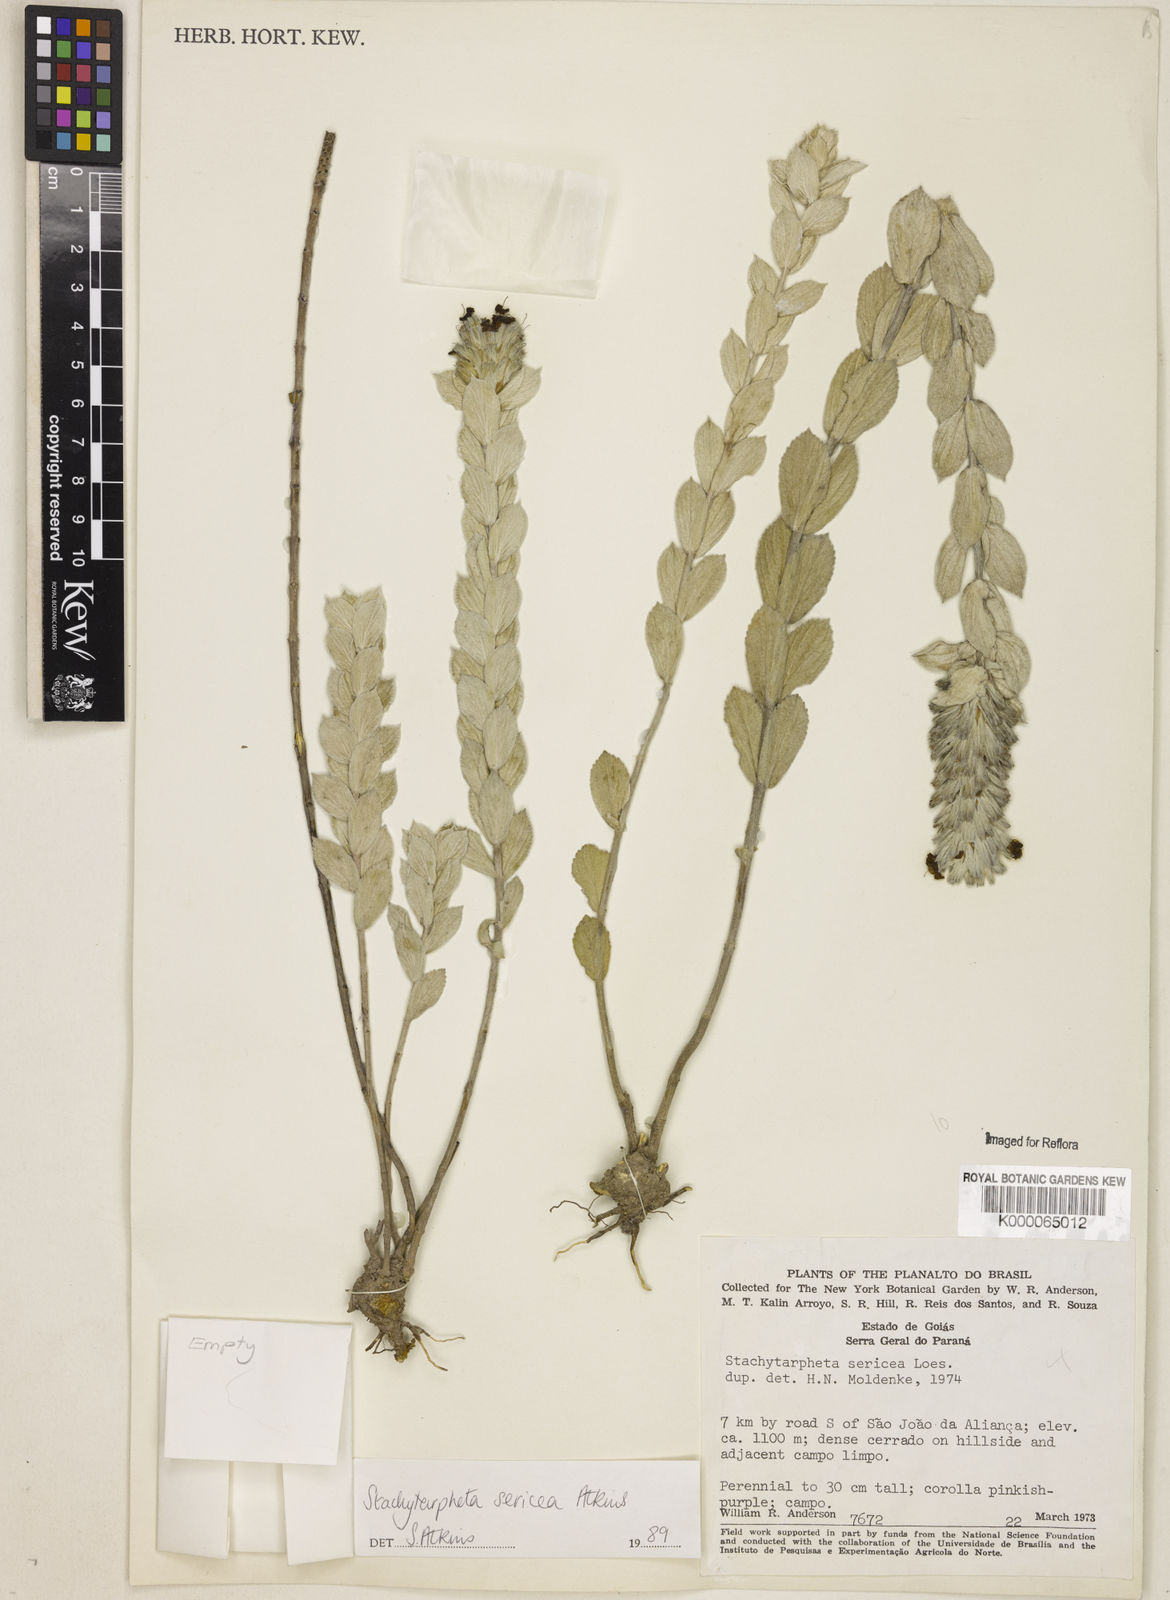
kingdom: Plantae
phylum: Tracheophyta
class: Magnoliopsida
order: Lamiales
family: Verbenaceae
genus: Stachytarpheta
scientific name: Stachytarpheta sericea
